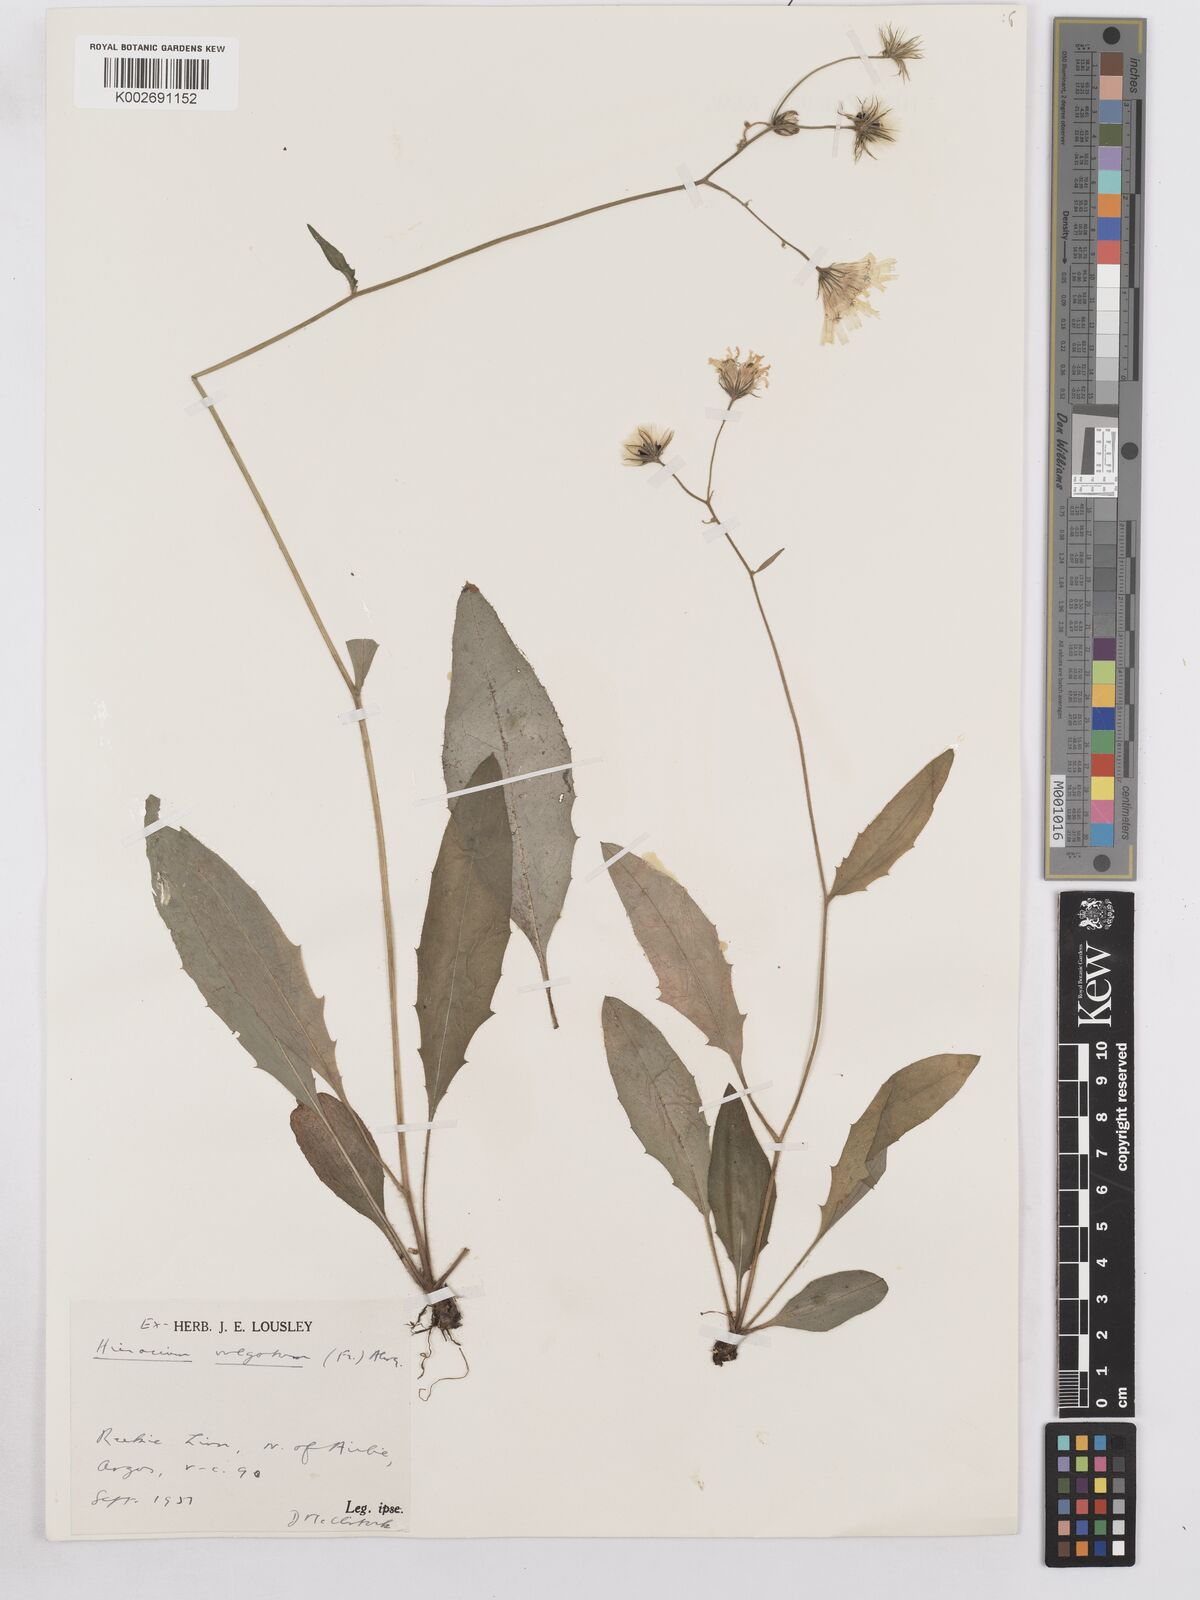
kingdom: Plantae
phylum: Tracheophyta
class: Magnoliopsida
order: Asterales
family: Asteraceae
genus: Hieracium
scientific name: Hieracium lachenalii
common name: Common hawkweed
